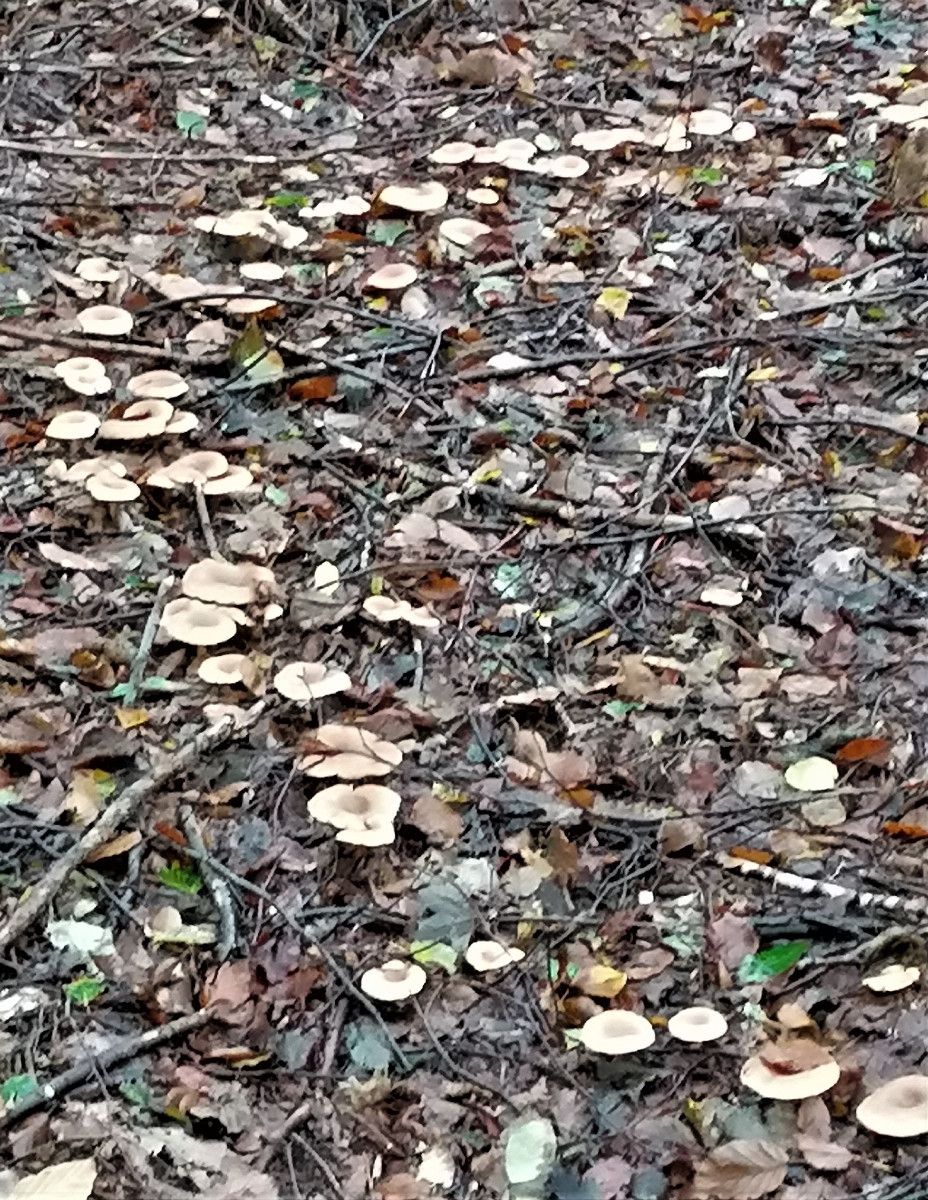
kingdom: Fungi
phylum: Basidiomycota
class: Agaricomycetes
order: Agaricales
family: Tricholomataceae
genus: Paralepista
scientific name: Paralepista flaccida
